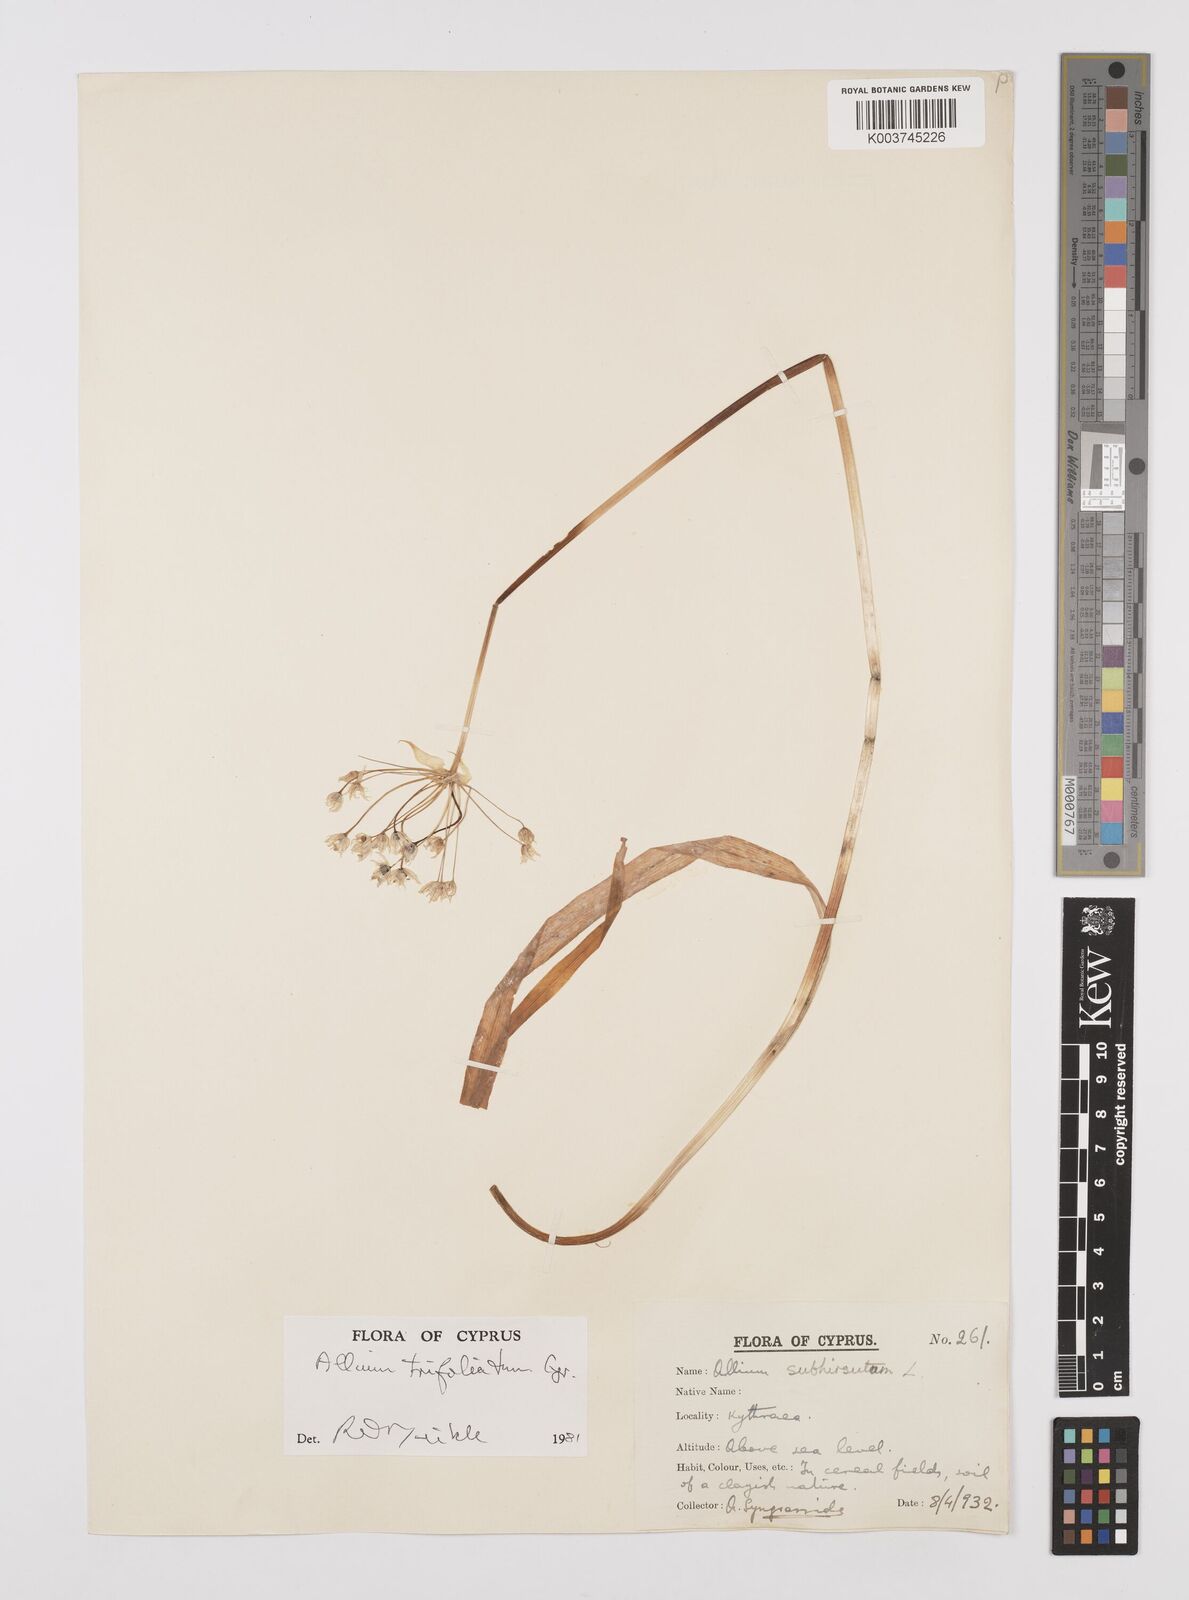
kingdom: Plantae
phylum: Tracheophyta
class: Liliopsida
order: Asparagales
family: Amaryllidaceae
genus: Allium
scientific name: Allium subhirsutum
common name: Hairy garlic
